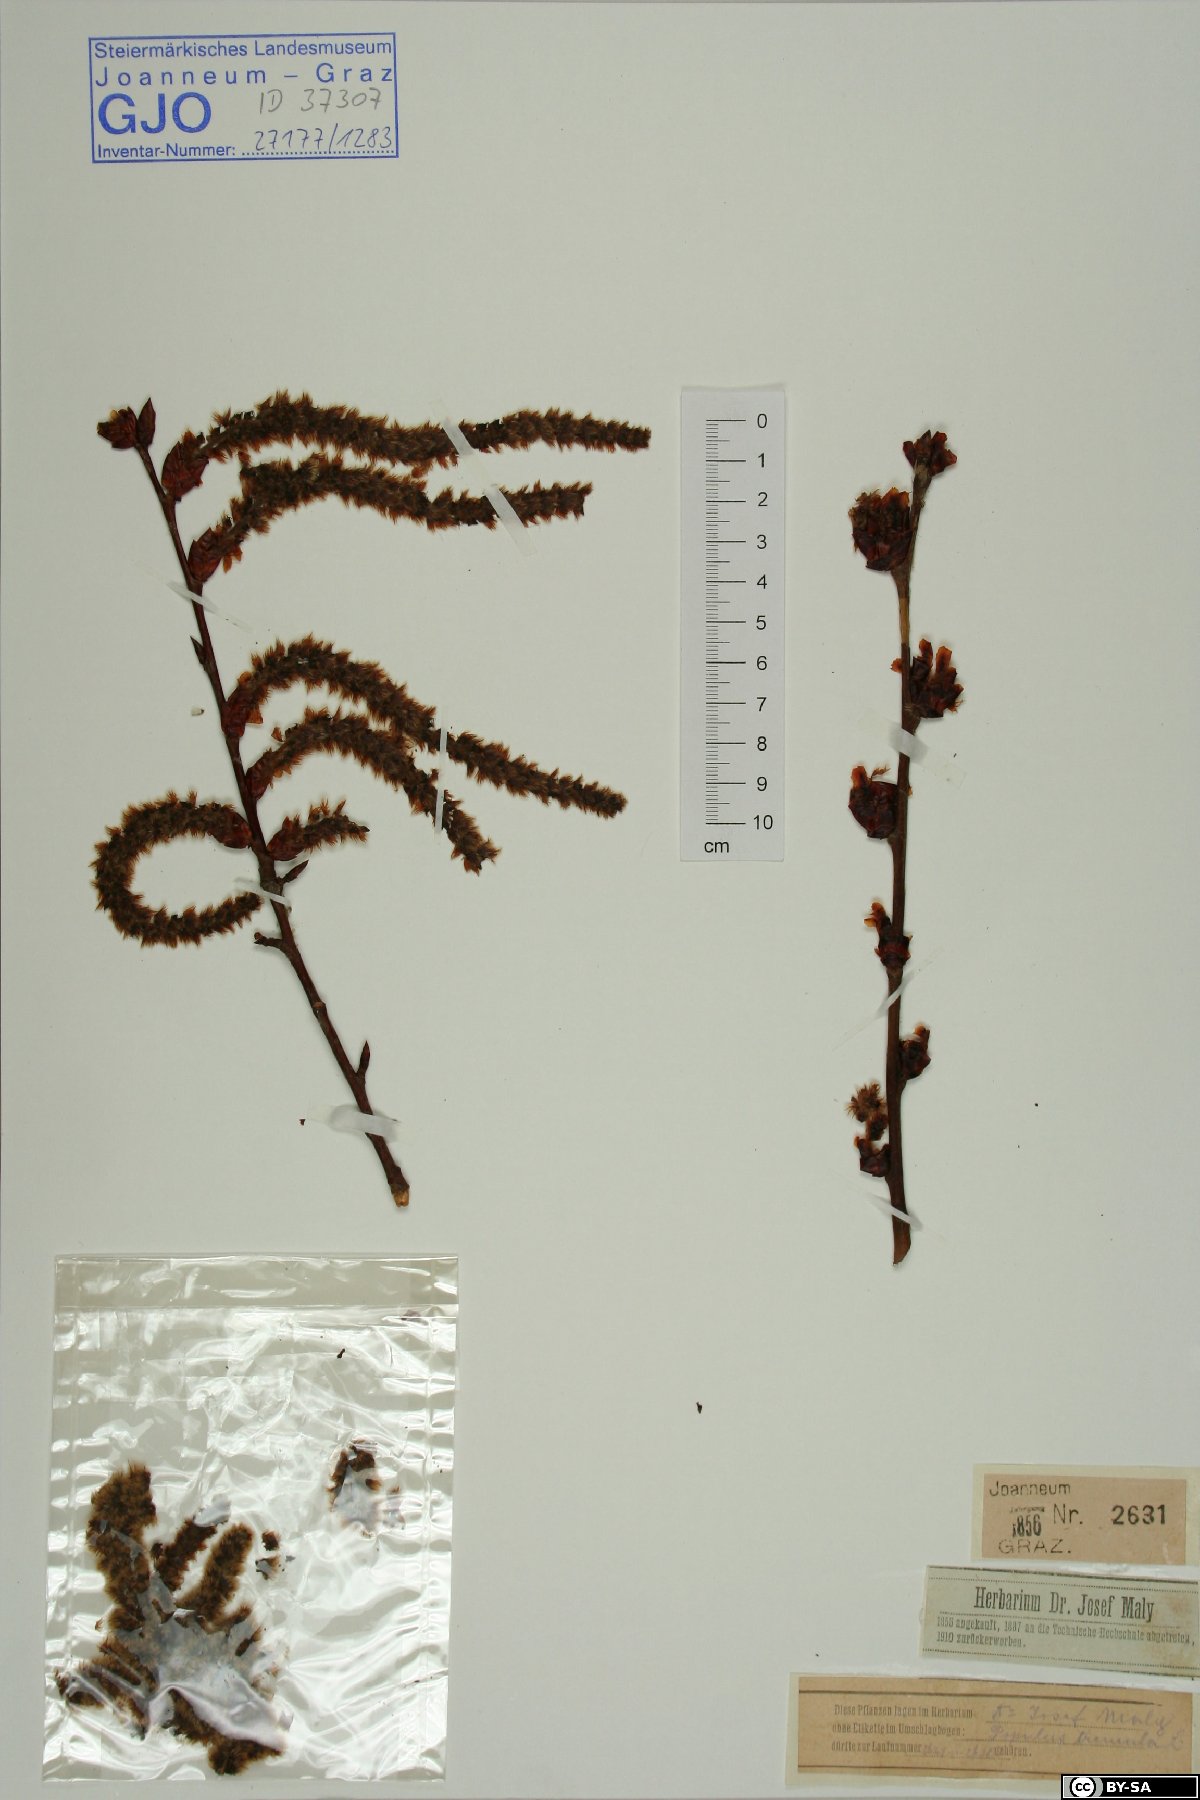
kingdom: Plantae
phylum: Tracheophyta
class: Magnoliopsida
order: Malpighiales
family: Salicaceae
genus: Populus
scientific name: Populus tremula
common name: European aspen
